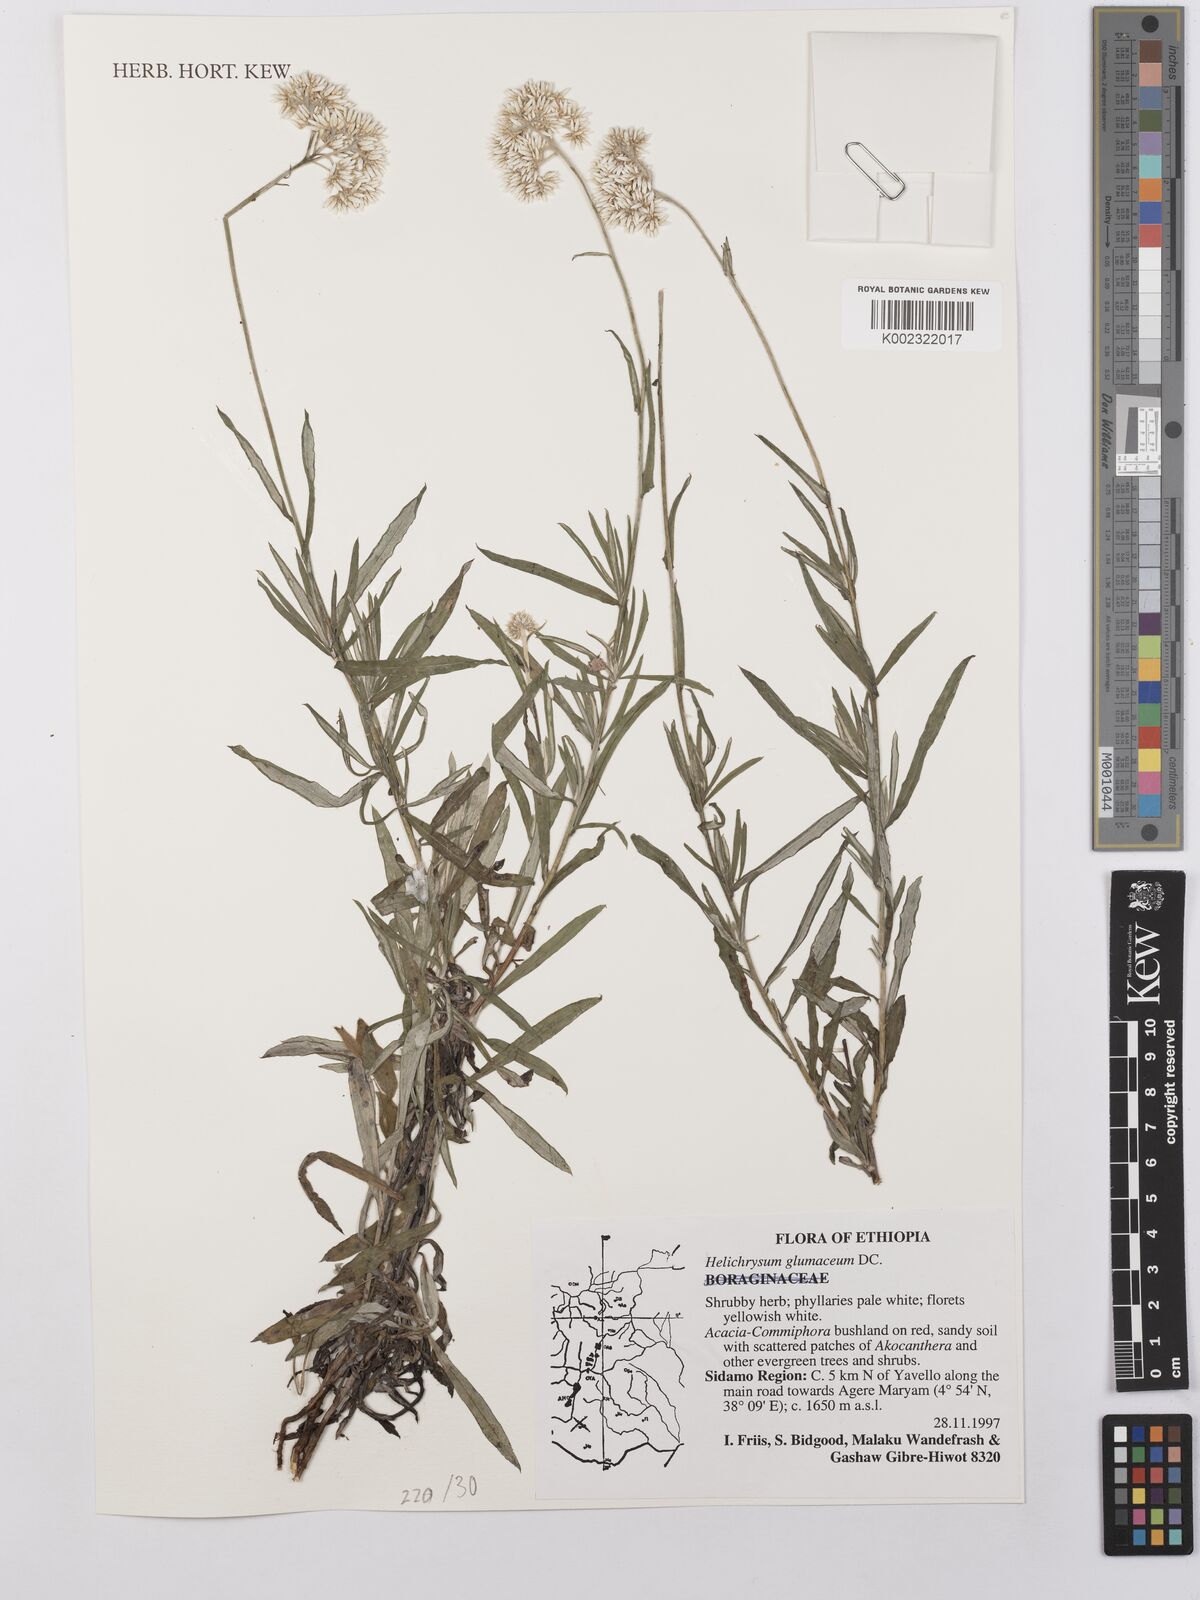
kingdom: Plantae
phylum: Tracheophyta
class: Magnoliopsida
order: Asterales
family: Asteraceae
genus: Helichrysum
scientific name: Helichrysum glumaceum
